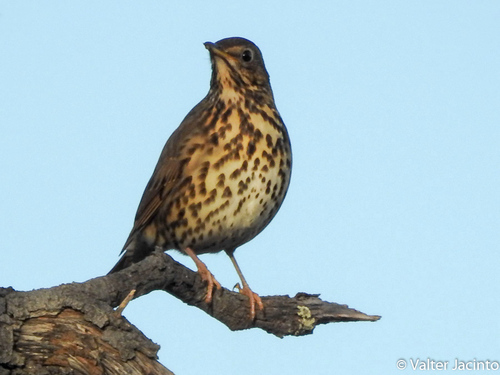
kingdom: Animalia
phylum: Chordata
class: Aves
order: Passeriformes
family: Turdidae
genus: Turdus
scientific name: Turdus philomelos
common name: Song thrush
